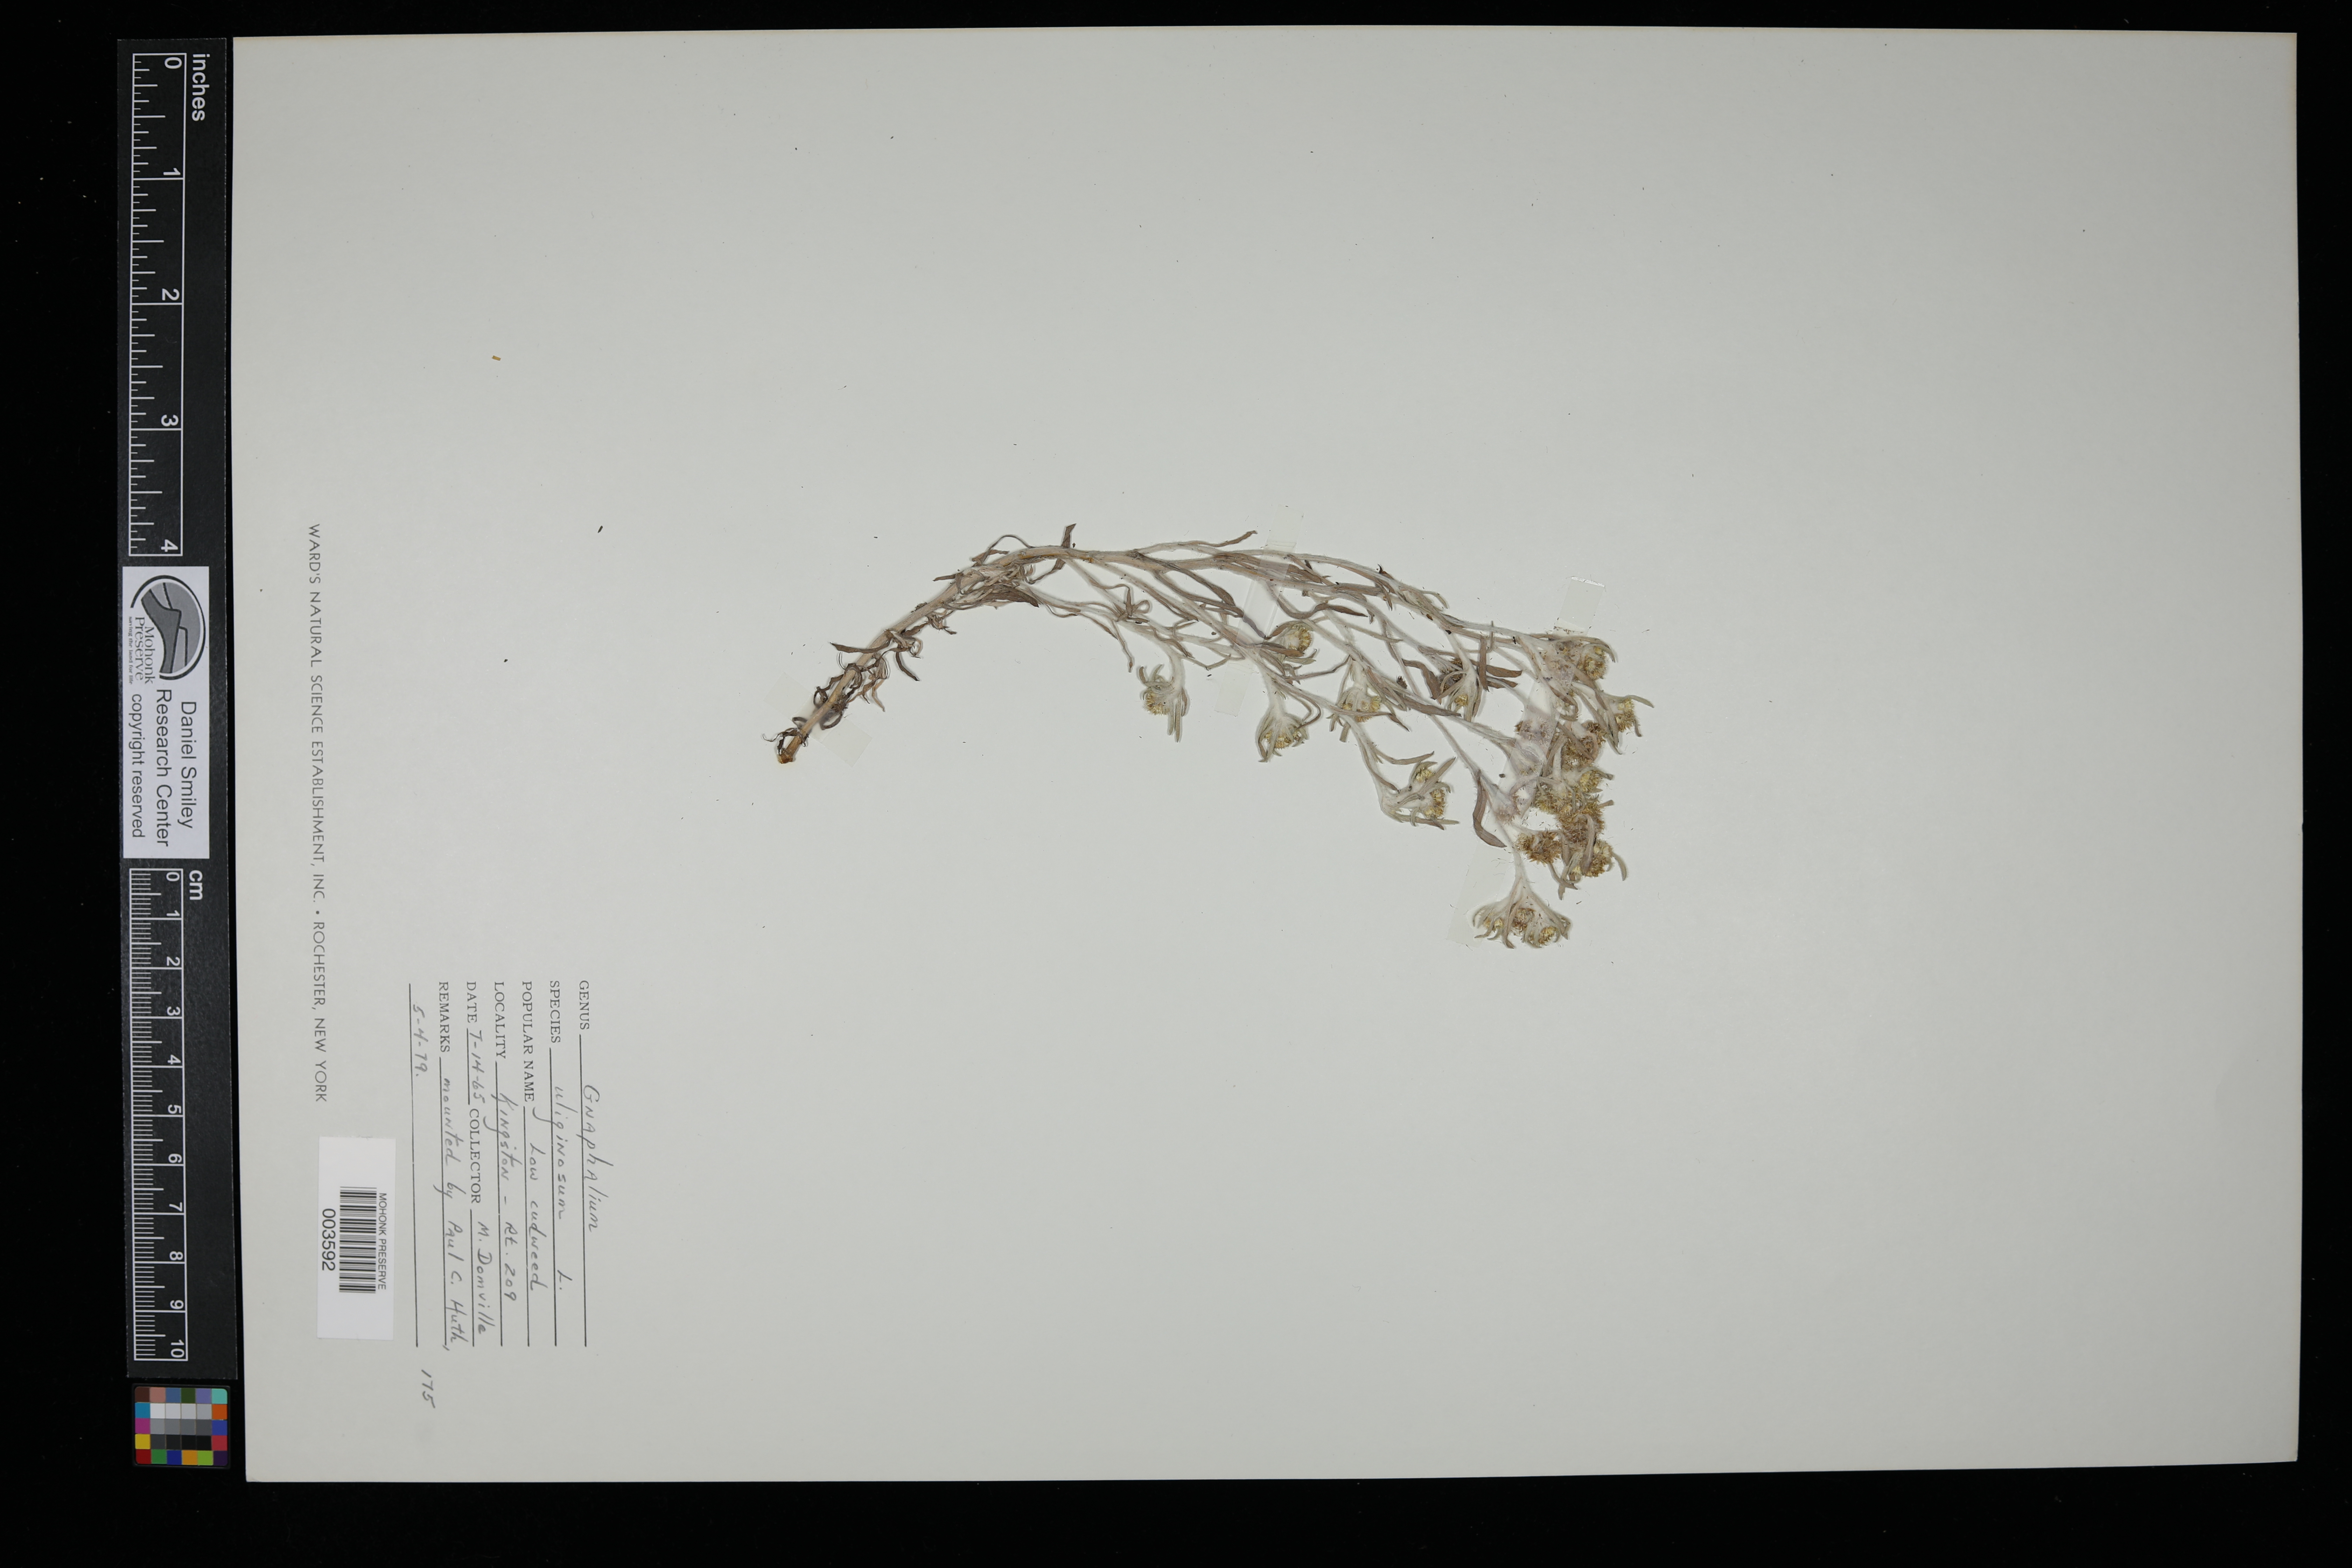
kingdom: Plantae
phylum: Tracheophyta
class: Magnoliopsida
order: Asterales
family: Asteraceae
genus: Gnaphalium
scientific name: Gnaphalium uliginosum
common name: Marsh cudweed
